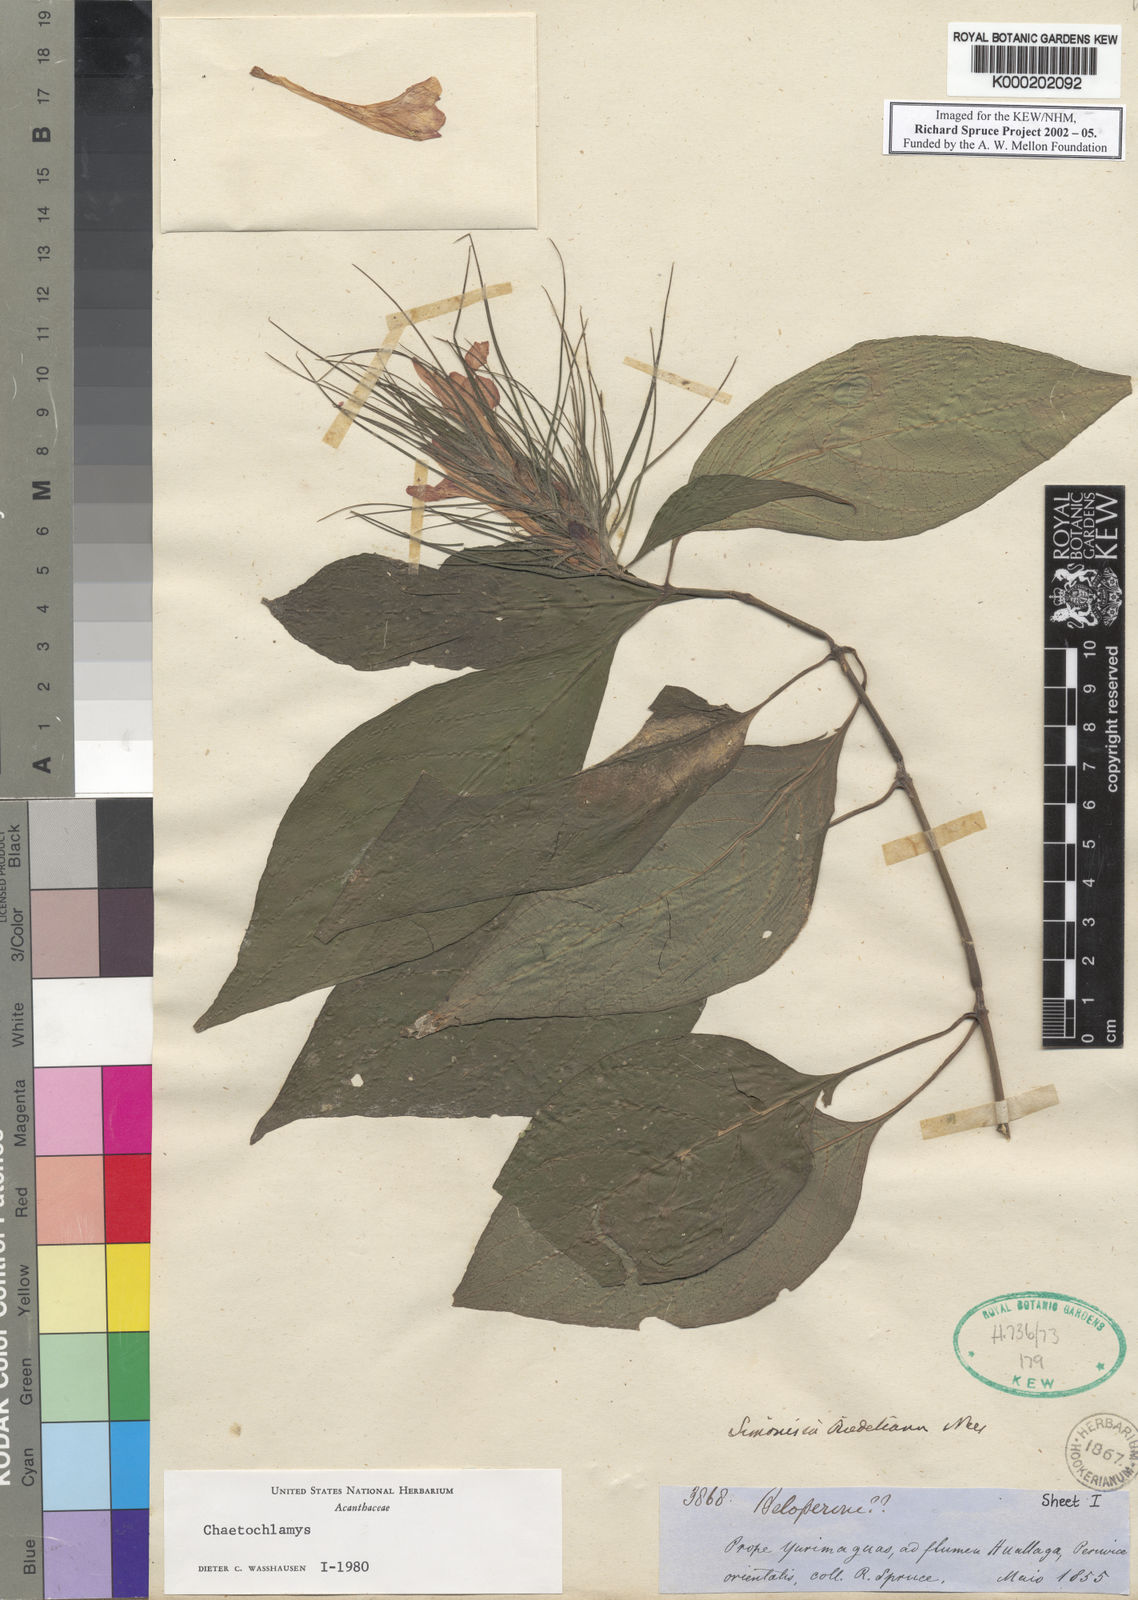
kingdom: Plantae
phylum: Tracheophyta
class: Magnoliopsida
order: Lamiales
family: Acanthaceae
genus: Justicia
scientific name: Justicia riedeliana
